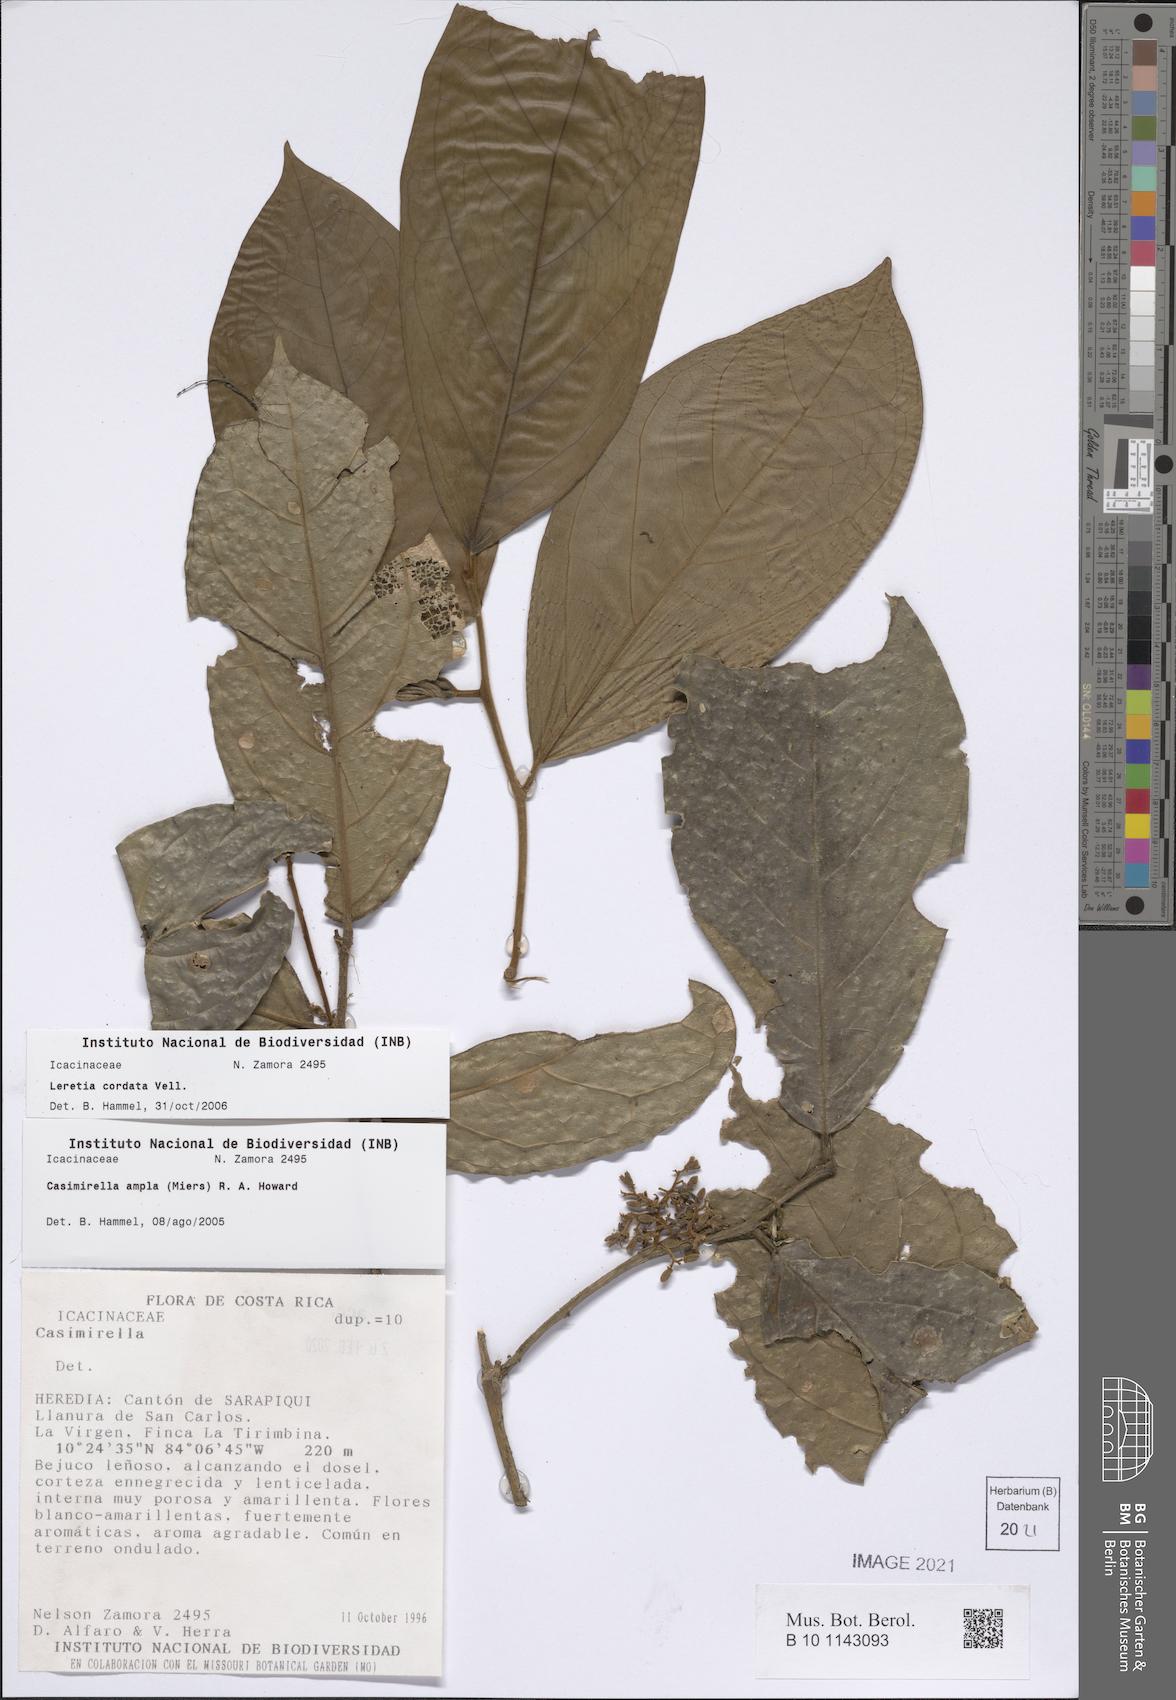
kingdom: Plantae
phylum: Tracheophyta
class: Magnoliopsida
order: Icacinales
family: Icacinaceae
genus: Leretia
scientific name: Leretia cordata
